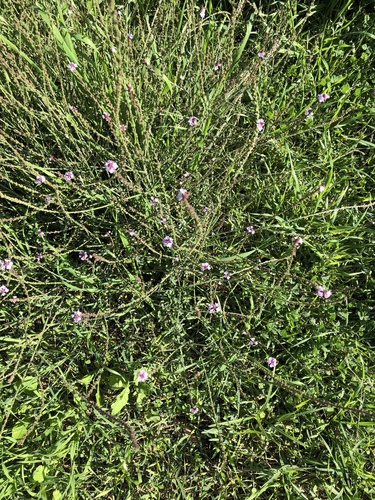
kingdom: Plantae
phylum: Tracheophyta
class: Magnoliopsida
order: Lamiales
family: Verbenaceae
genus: Verbena
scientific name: Verbena officinalis
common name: Vervain
